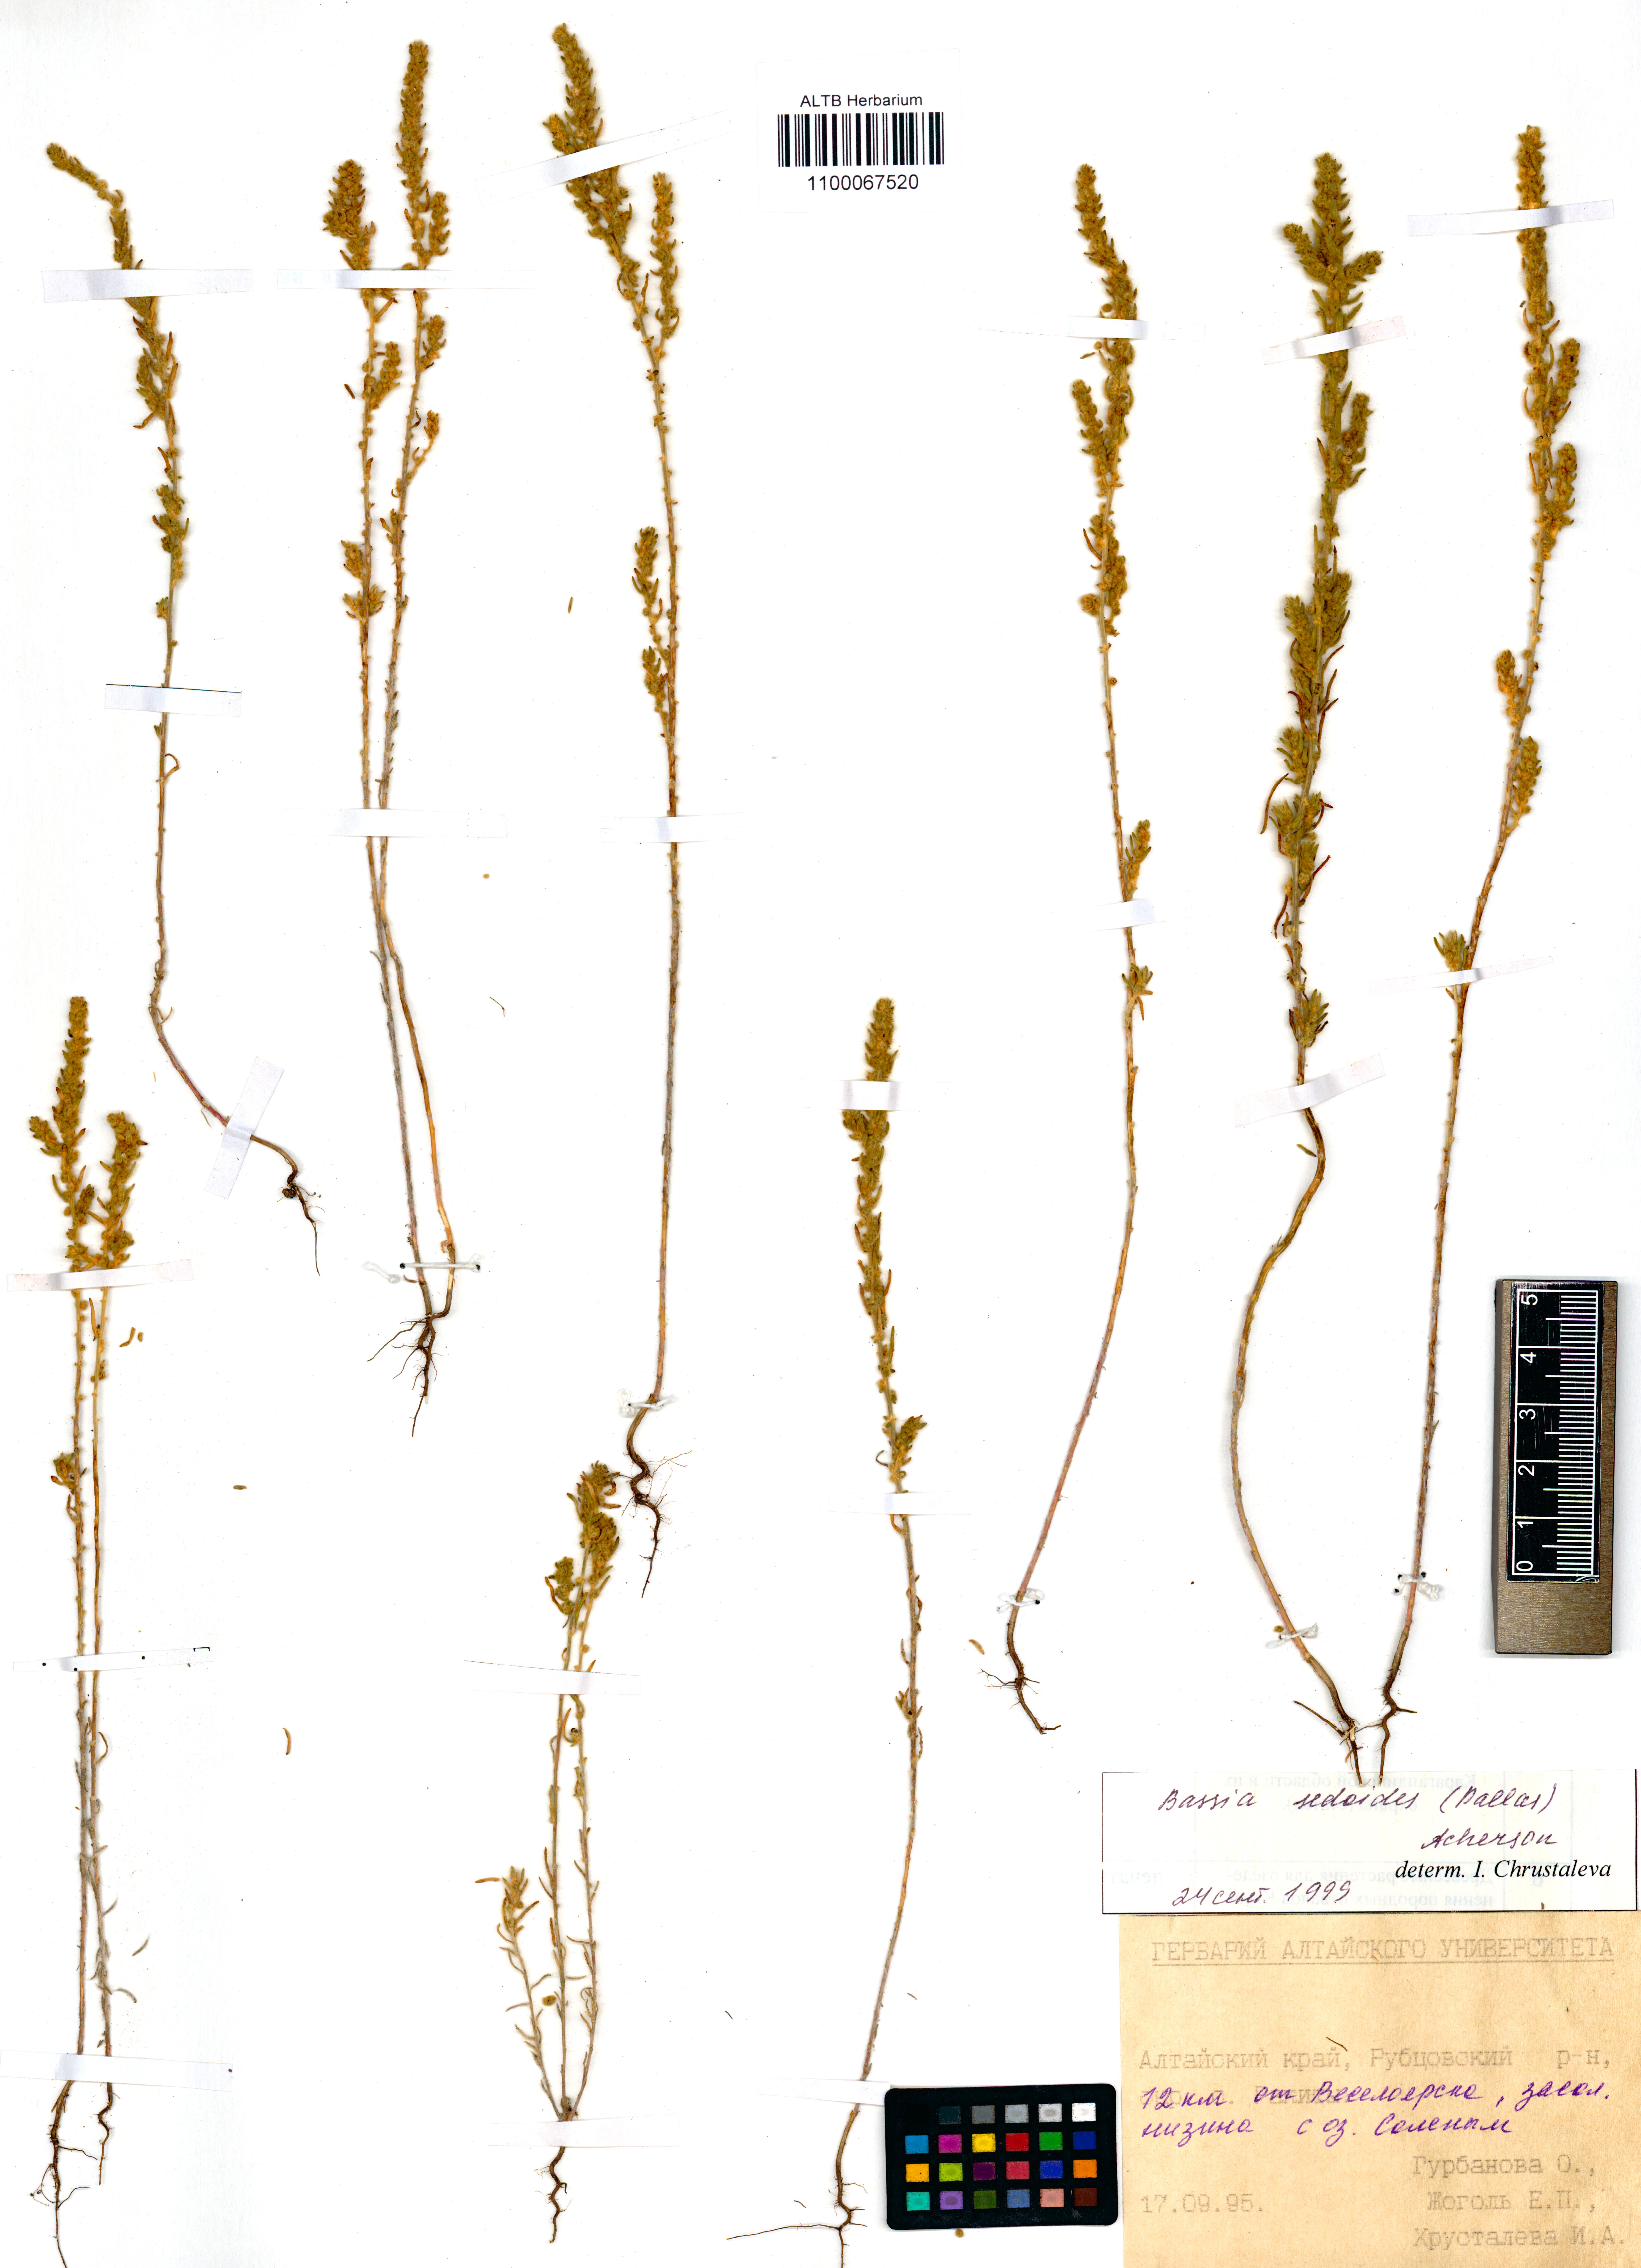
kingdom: Plantae
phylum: Tracheophyta
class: Magnoliopsida
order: Caryophyllales
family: Amaranthaceae
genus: Sedobassia
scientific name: Sedobassia sedoides
